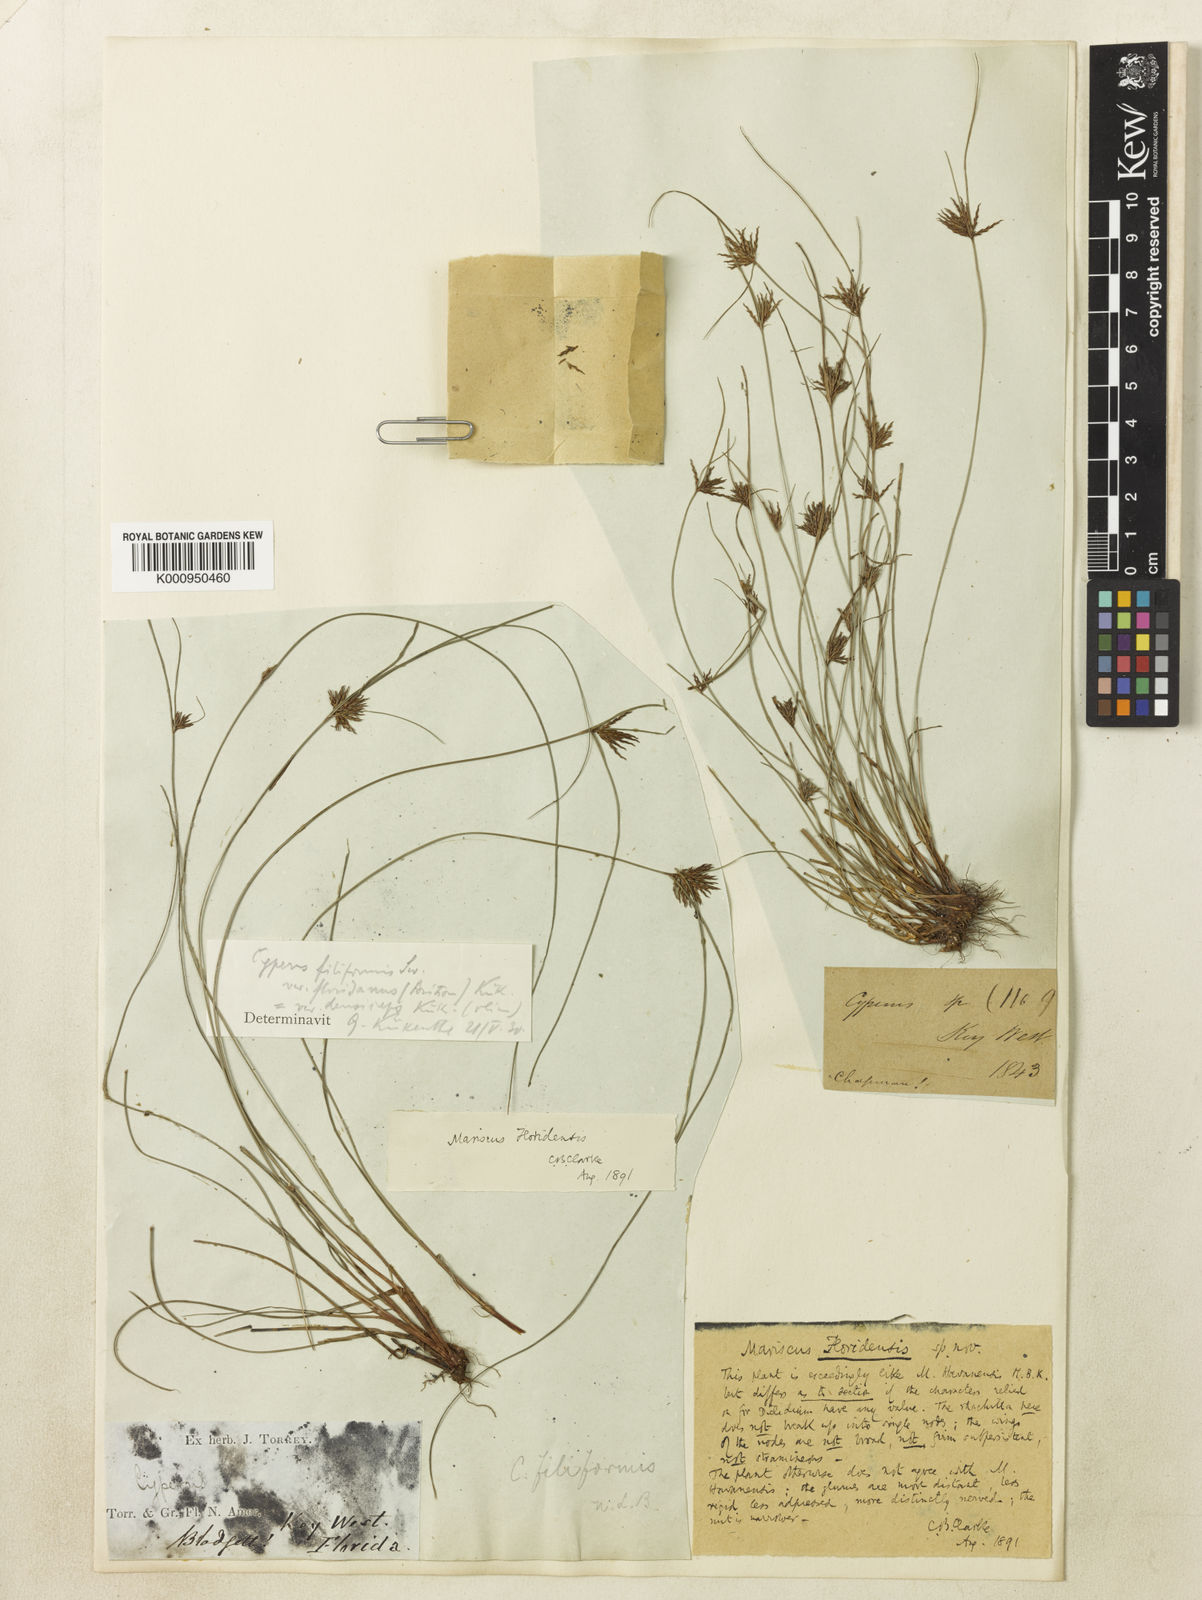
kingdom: Plantae
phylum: Tracheophyta
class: Liliopsida
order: Poales
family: Cyperaceae
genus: Cyperus
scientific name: Cyperus filiformis
